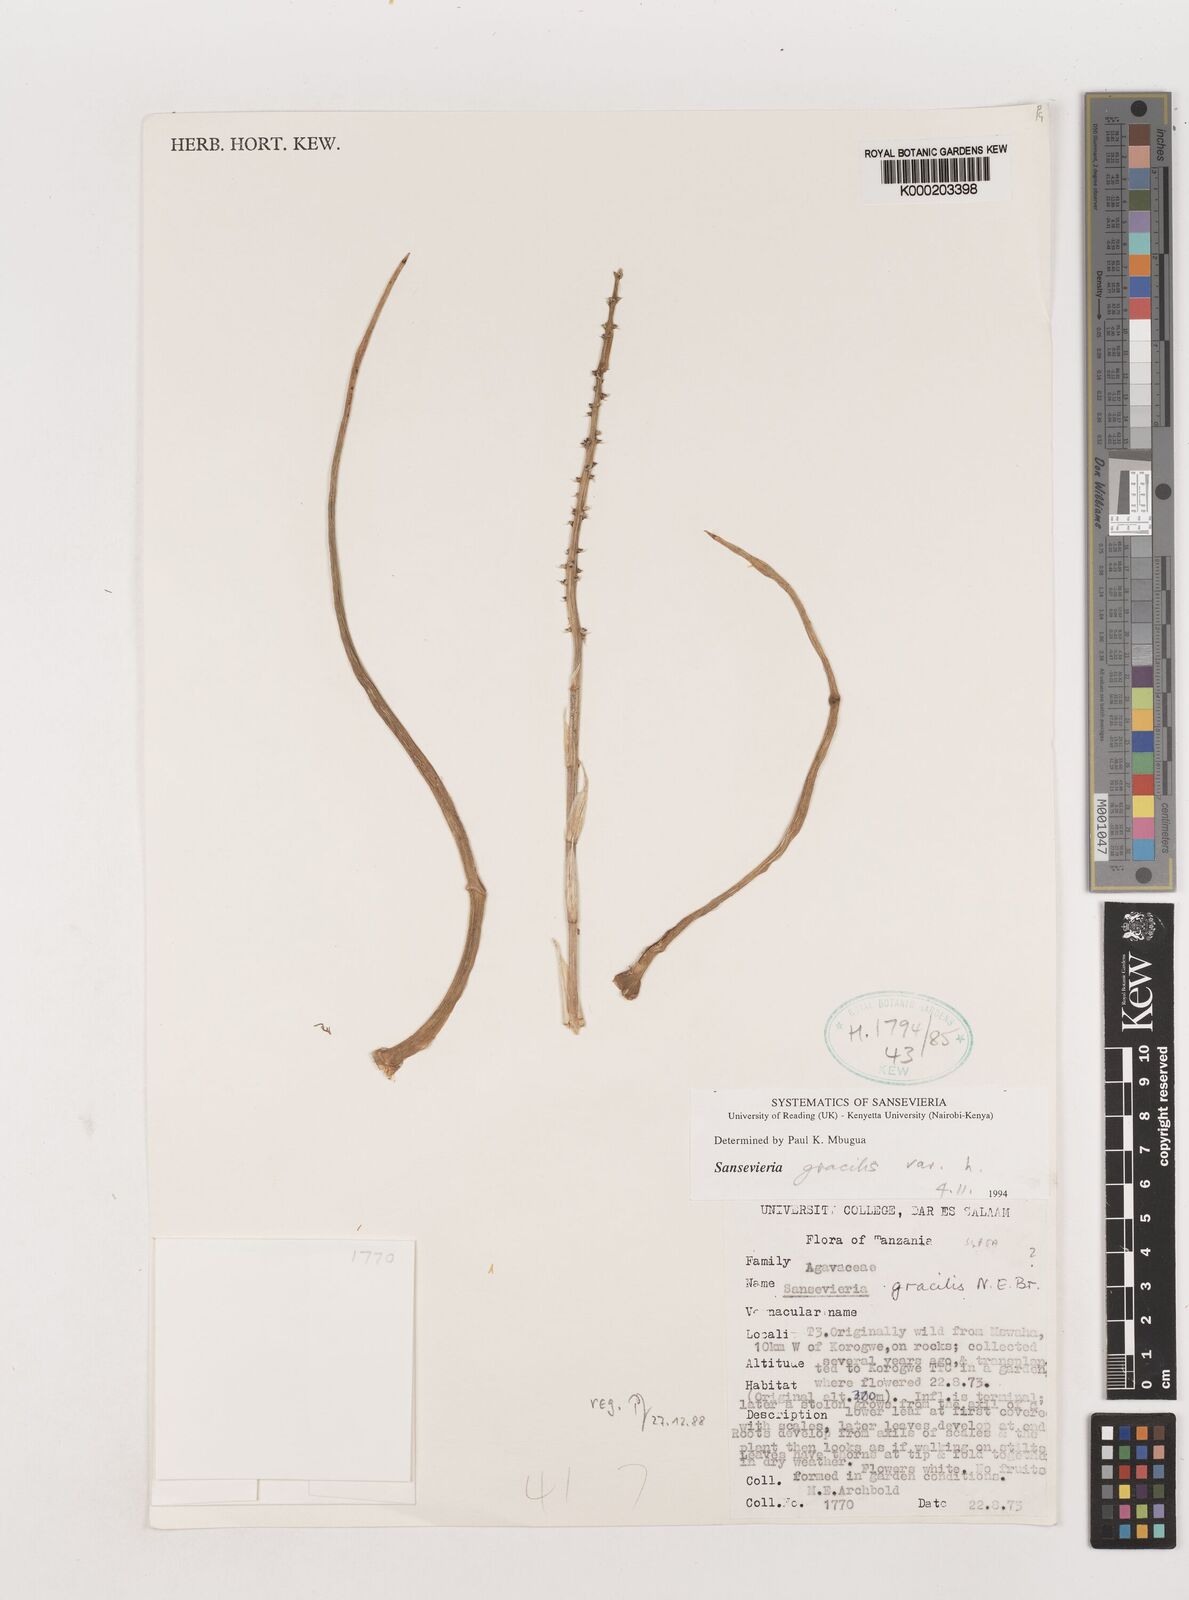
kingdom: Plantae
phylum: Tracheophyta
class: Liliopsida
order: Asparagales
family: Asparagaceae
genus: Dracaena
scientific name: Dracaena serpenta
